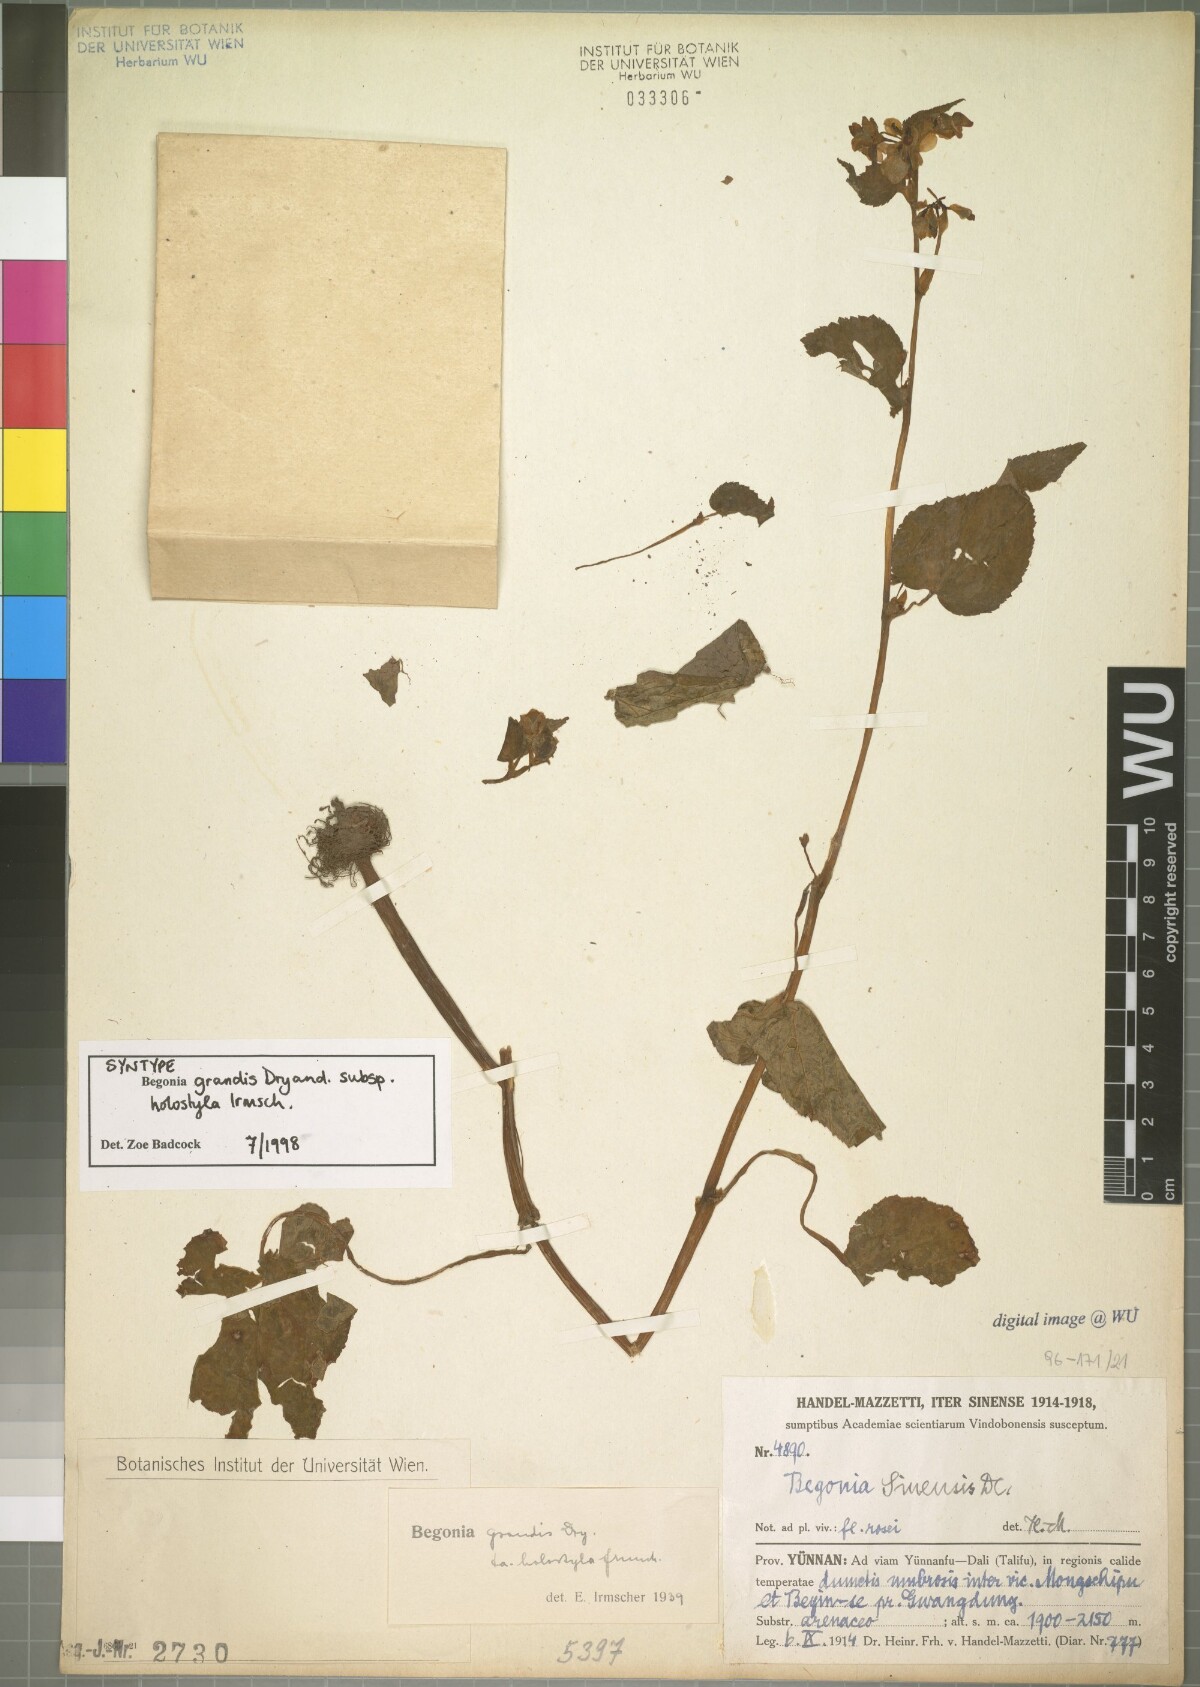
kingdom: Plantae
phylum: Tracheophyta
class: Magnoliopsida
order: Cucurbitales
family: Begoniaceae
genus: Begonia
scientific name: Begonia grandis
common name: Hardy begonia
